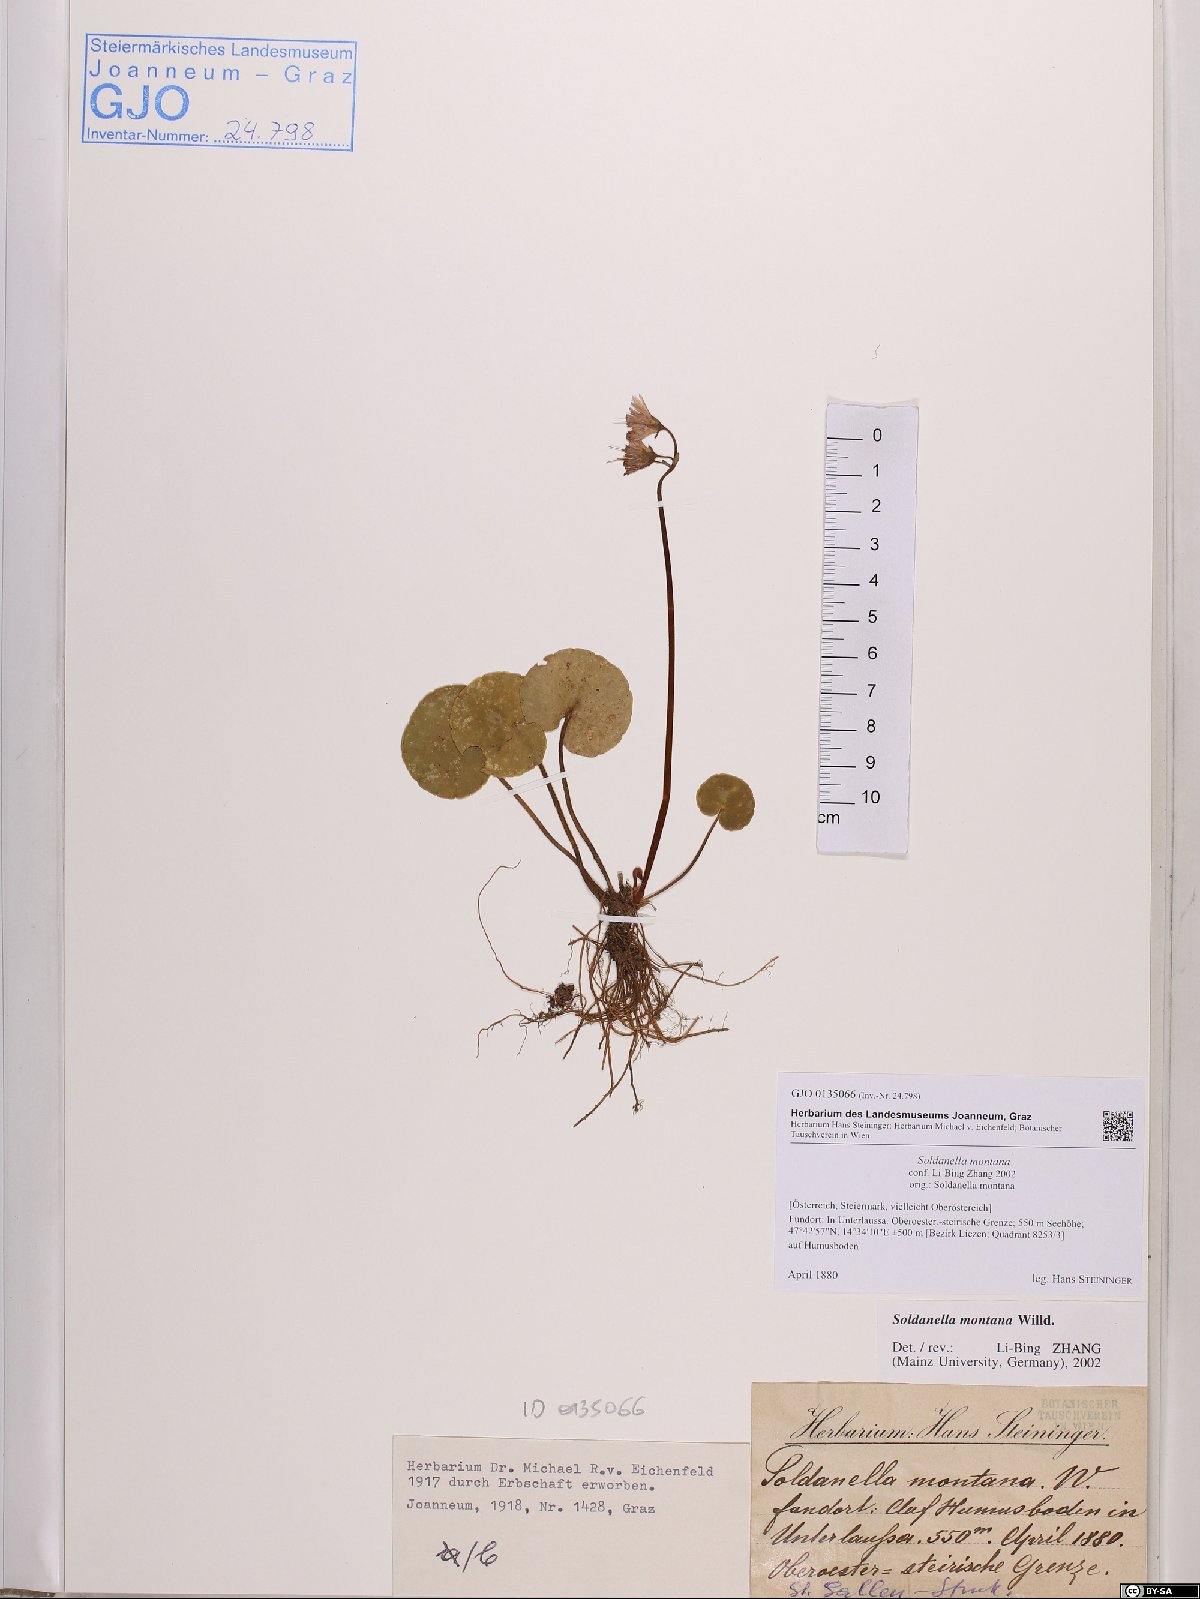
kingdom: Plantae
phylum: Tracheophyta
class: Magnoliopsida
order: Ericales
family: Primulaceae
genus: Soldanella
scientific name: Soldanella montana
